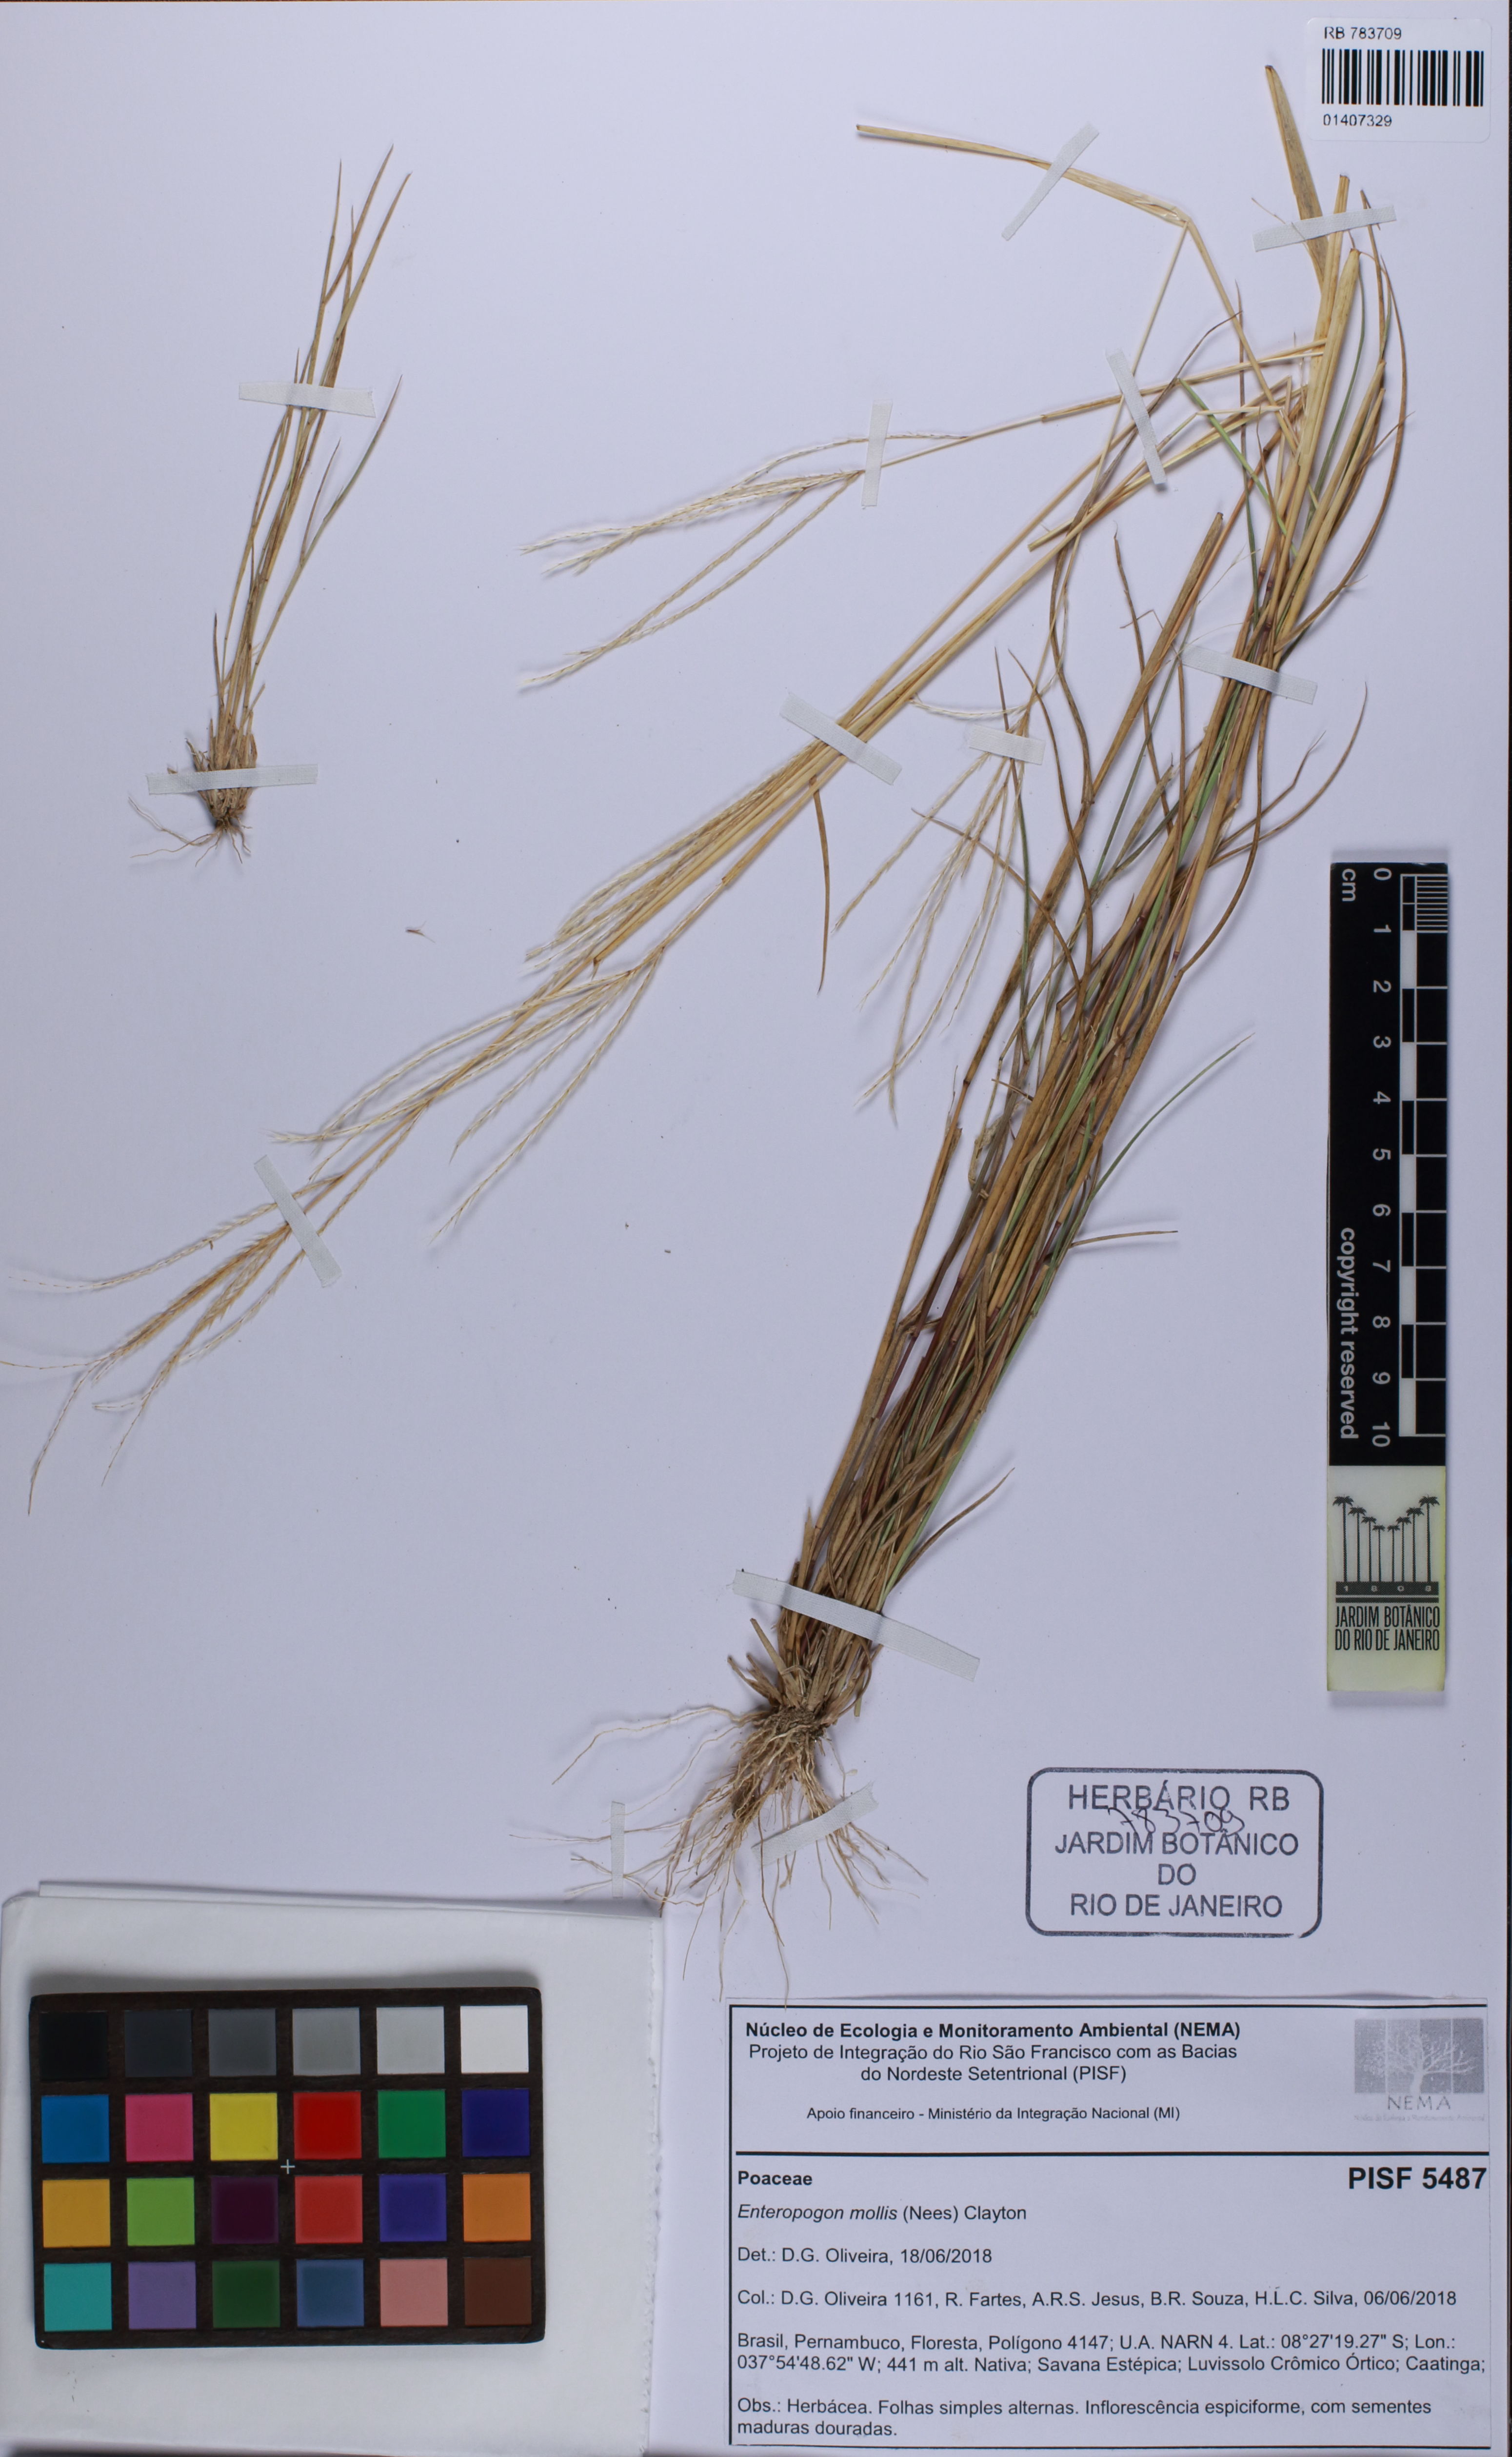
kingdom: Plantae
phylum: Tracheophyta
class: Liliopsida
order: Poales
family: Poaceae
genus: Leptochloa
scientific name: Leptochloa anisopoda
